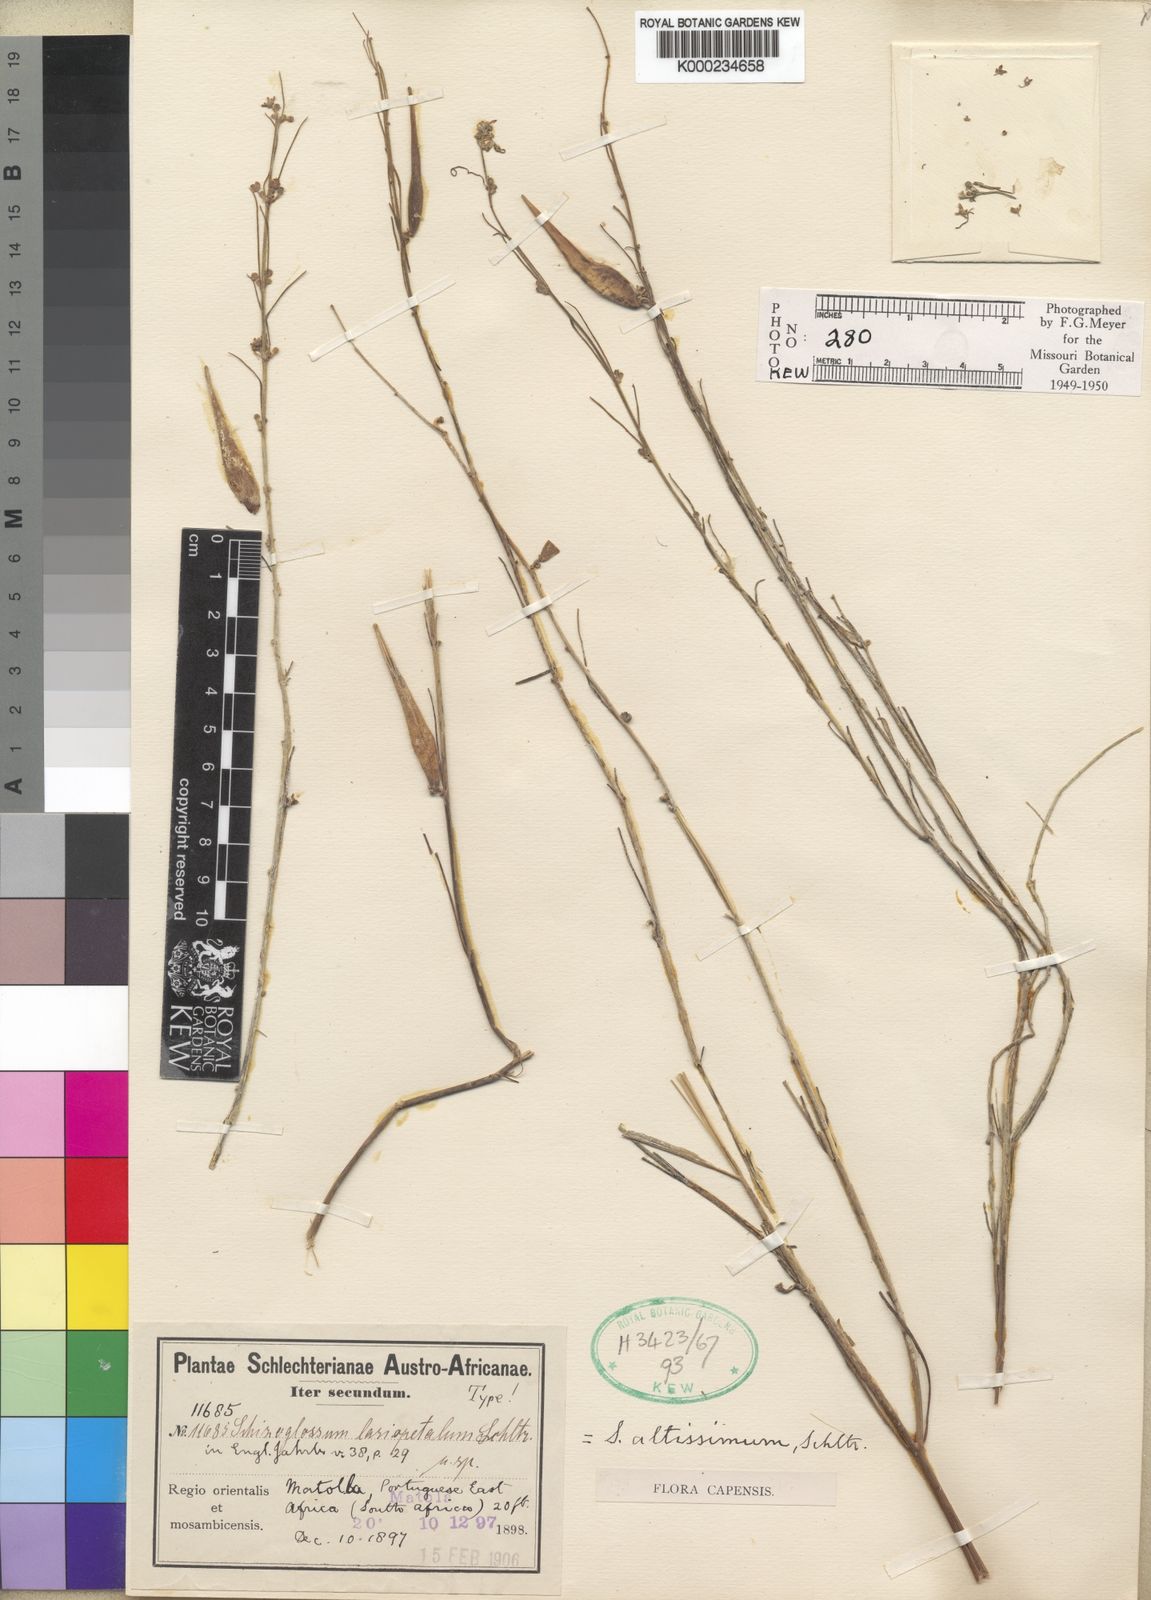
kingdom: Plantae
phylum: Tracheophyta
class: Magnoliopsida
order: Gentianales
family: Apocynaceae
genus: Aspidoglossum
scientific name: Aspidoglossum interruptum
